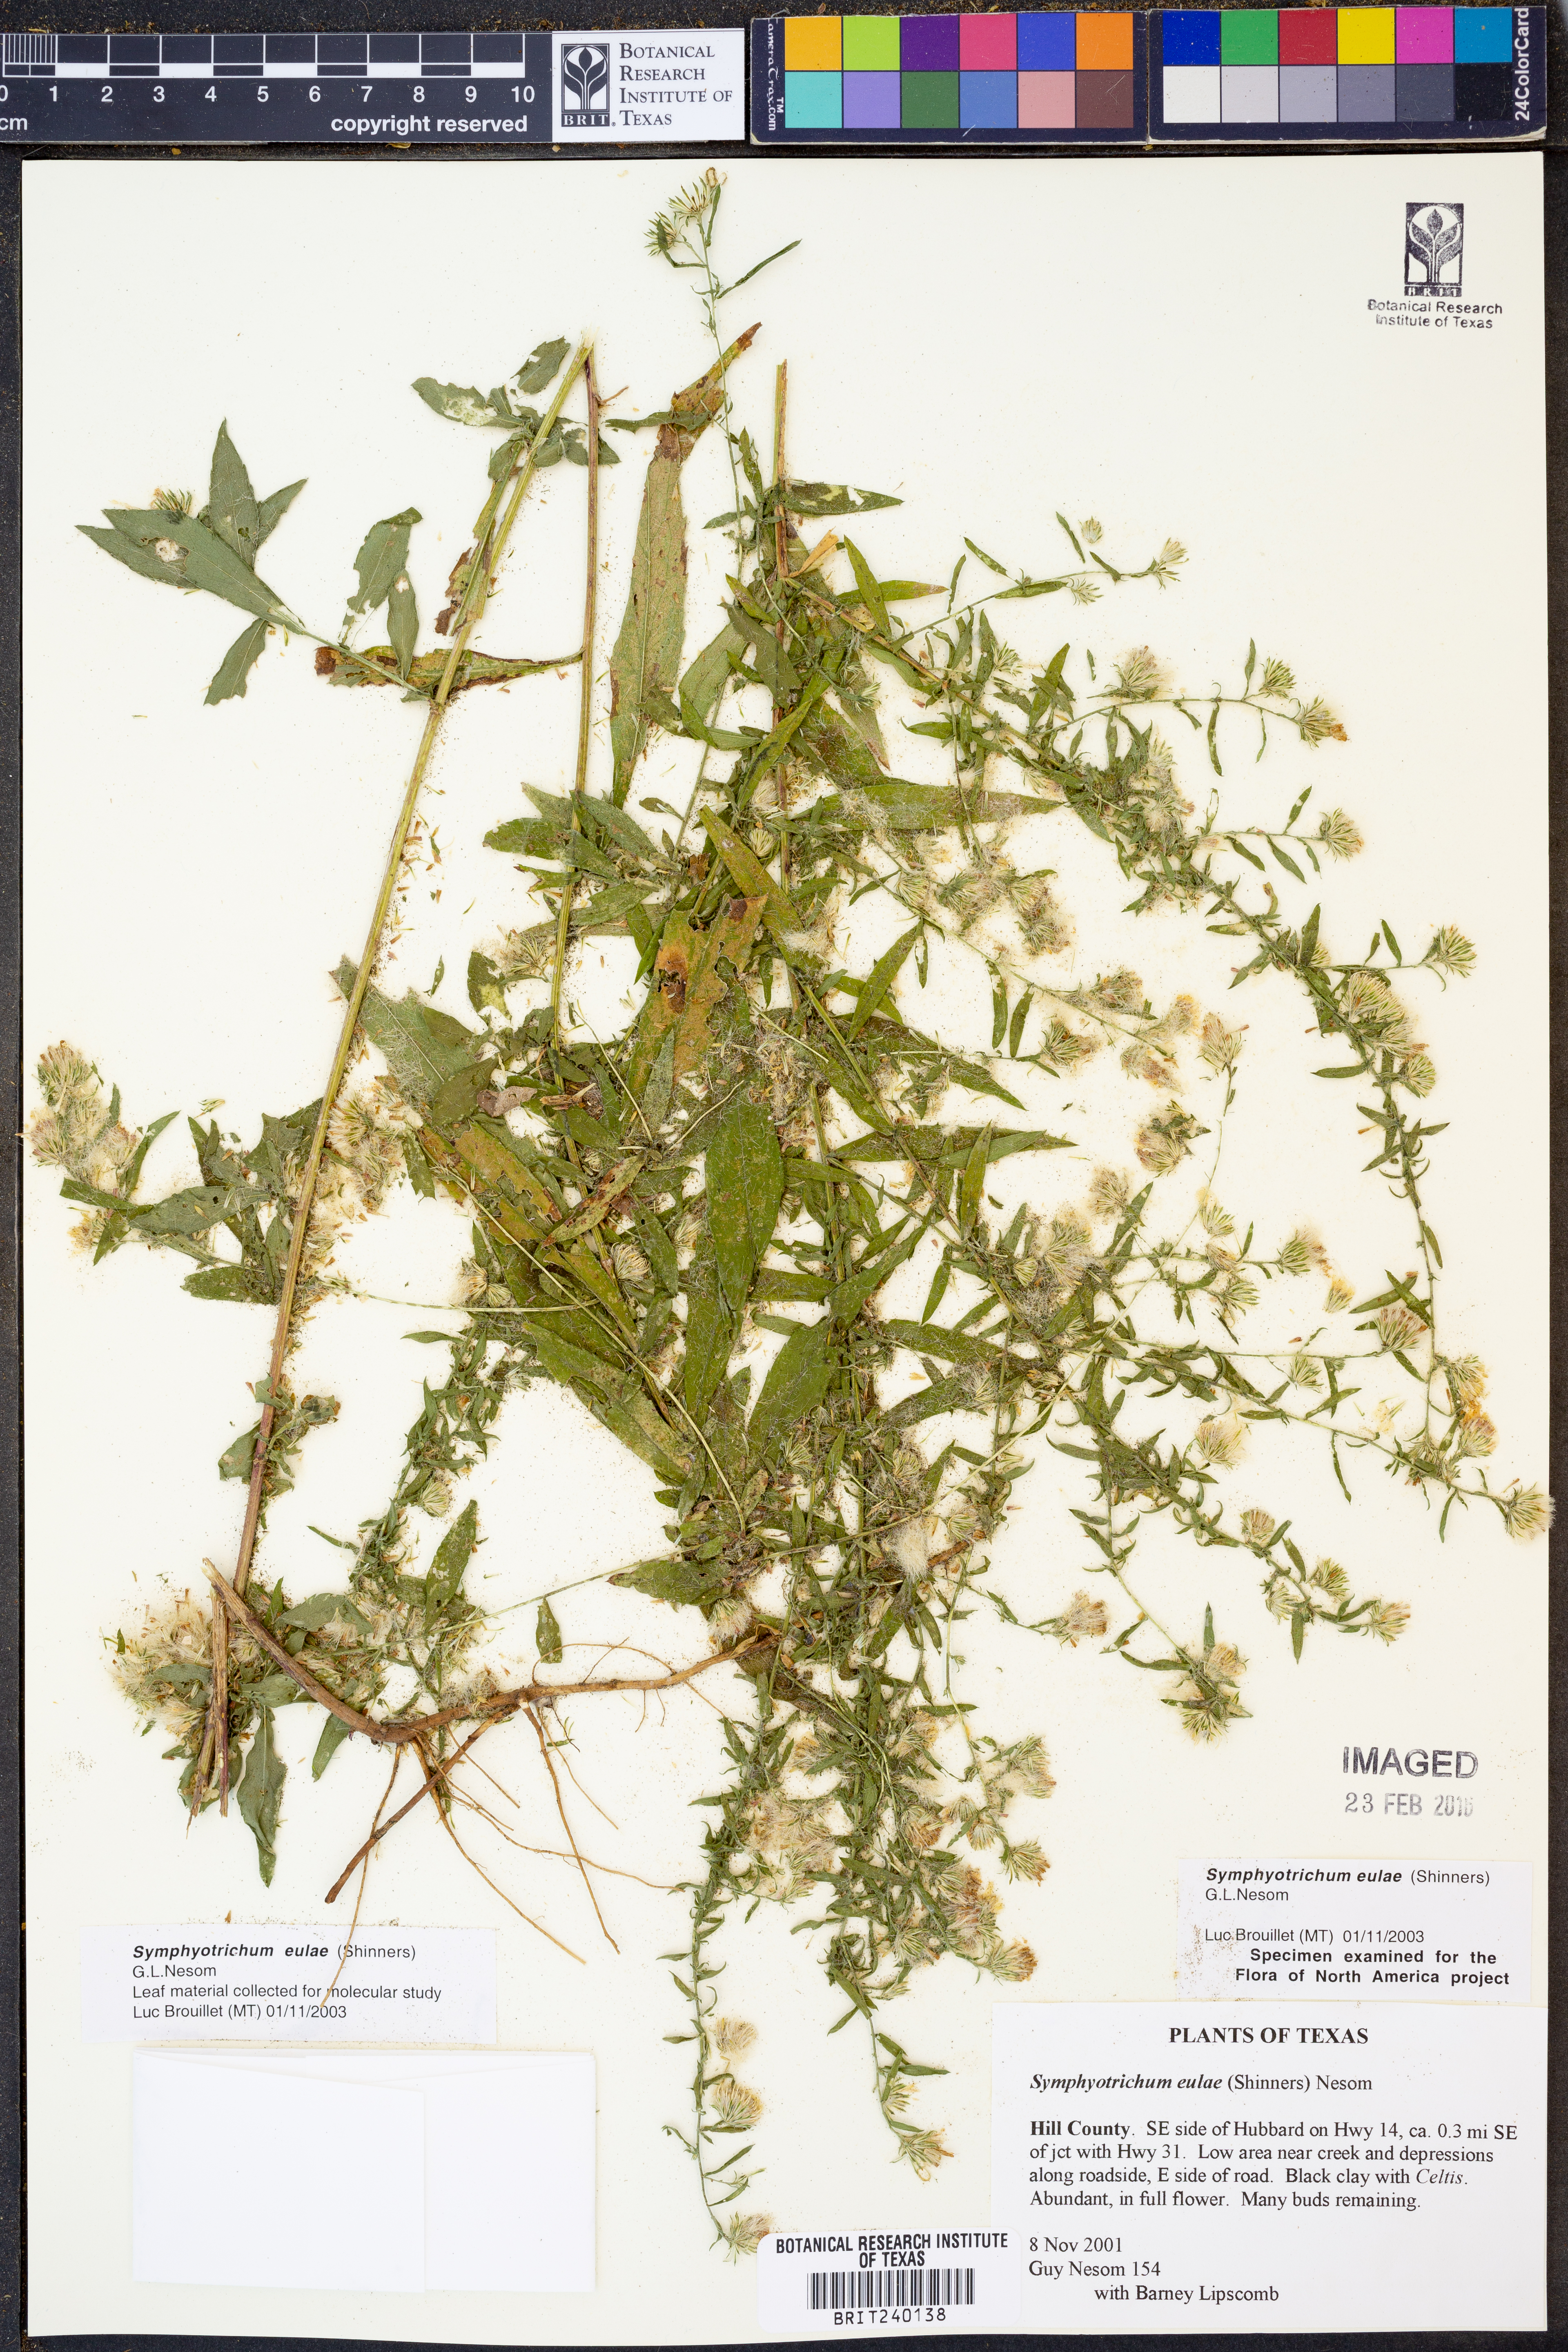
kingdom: Plantae
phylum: Tracheophyta
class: Magnoliopsida
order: Asterales
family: Asteraceae
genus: Symphyotrichum
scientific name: Symphyotrichum eulae
